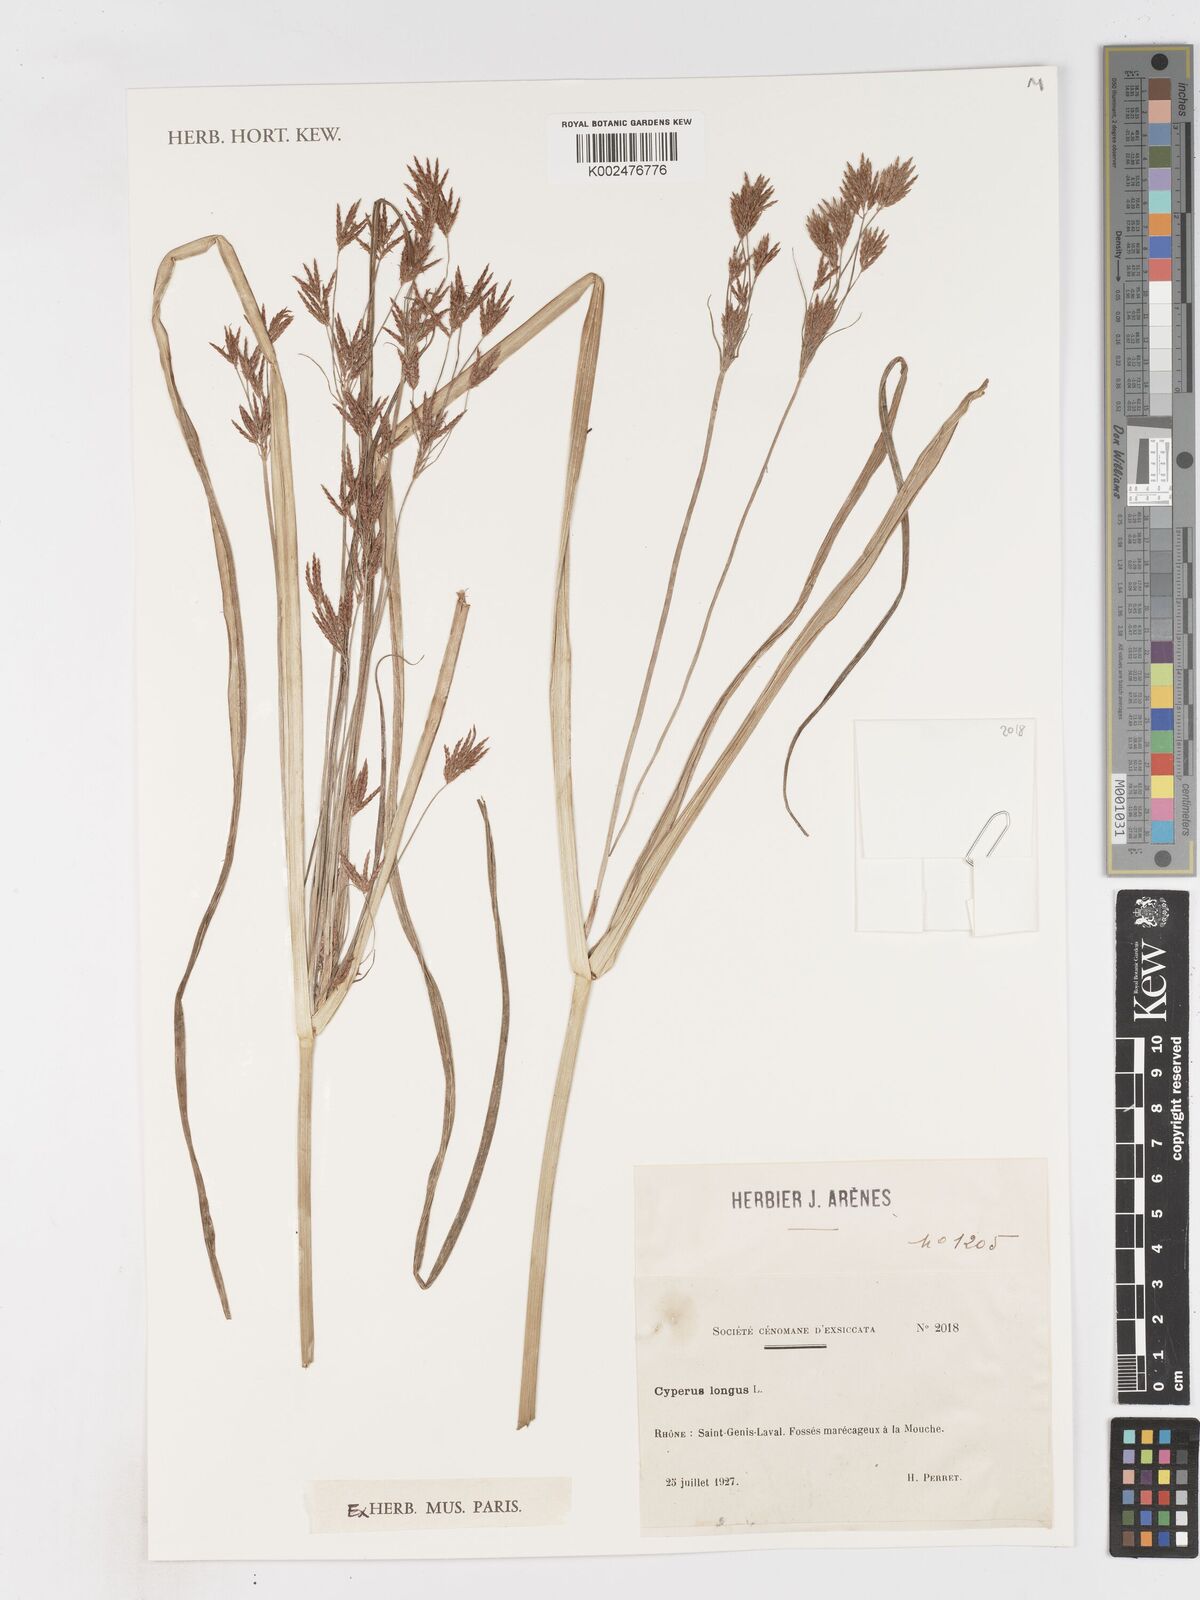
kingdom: Plantae
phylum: Tracheophyta
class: Liliopsida
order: Poales
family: Cyperaceae
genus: Cyperus
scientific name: Cyperus longus
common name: Galingale
